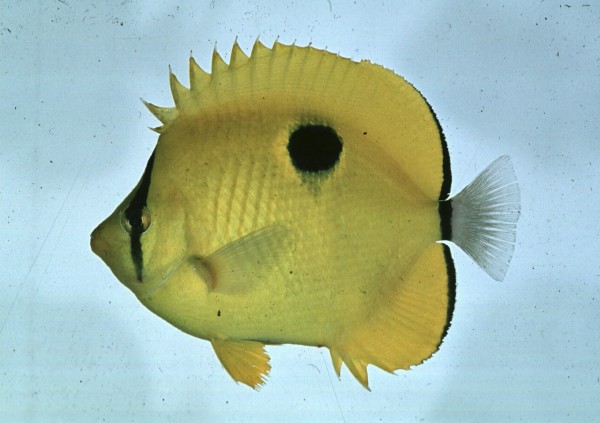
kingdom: Animalia
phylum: Chordata
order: Perciformes
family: Chaetodontidae
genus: Chaetodon
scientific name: Chaetodon interruptus
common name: Yellow teardrop butterflyfish
